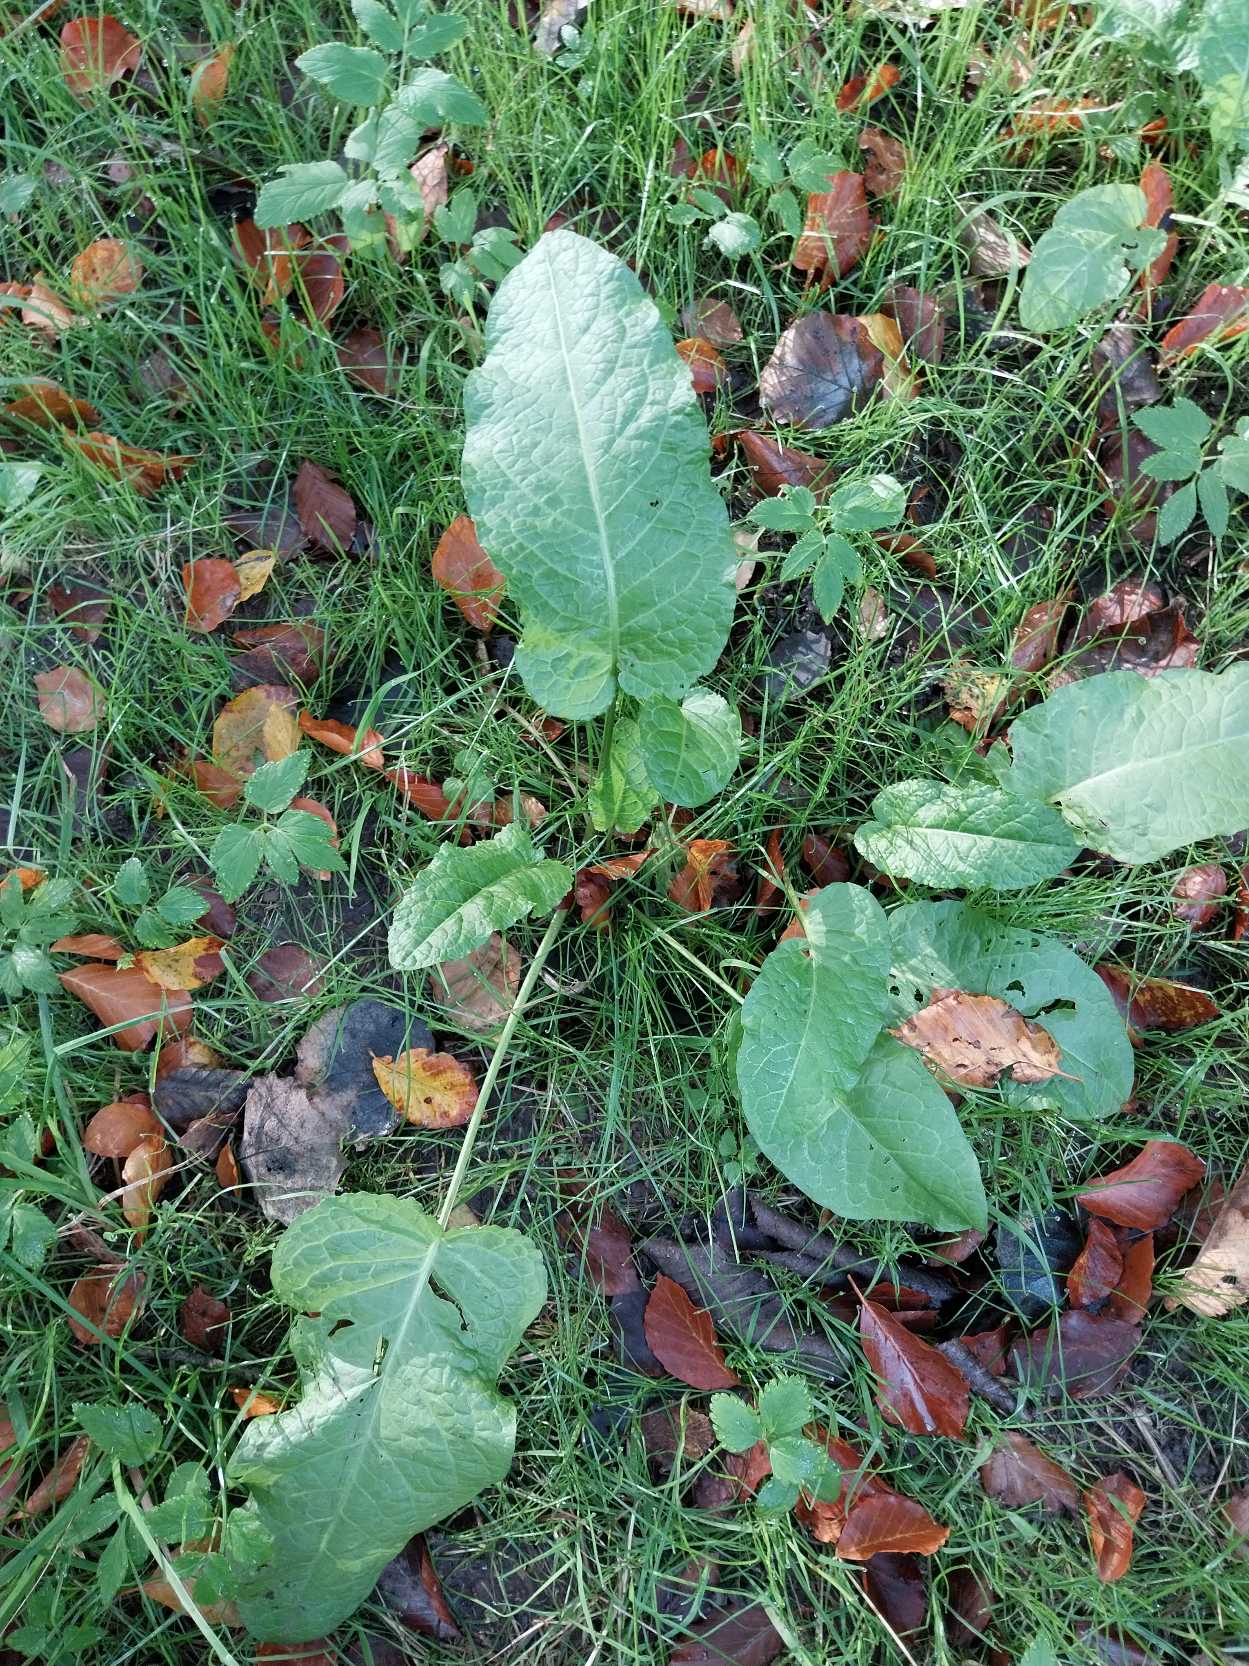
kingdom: Plantae
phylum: Tracheophyta
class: Magnoliopsida
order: Caryophyllales
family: Polygonaceae
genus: Rumex
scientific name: Rumex obtusifolius
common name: Butbladet skræppe
